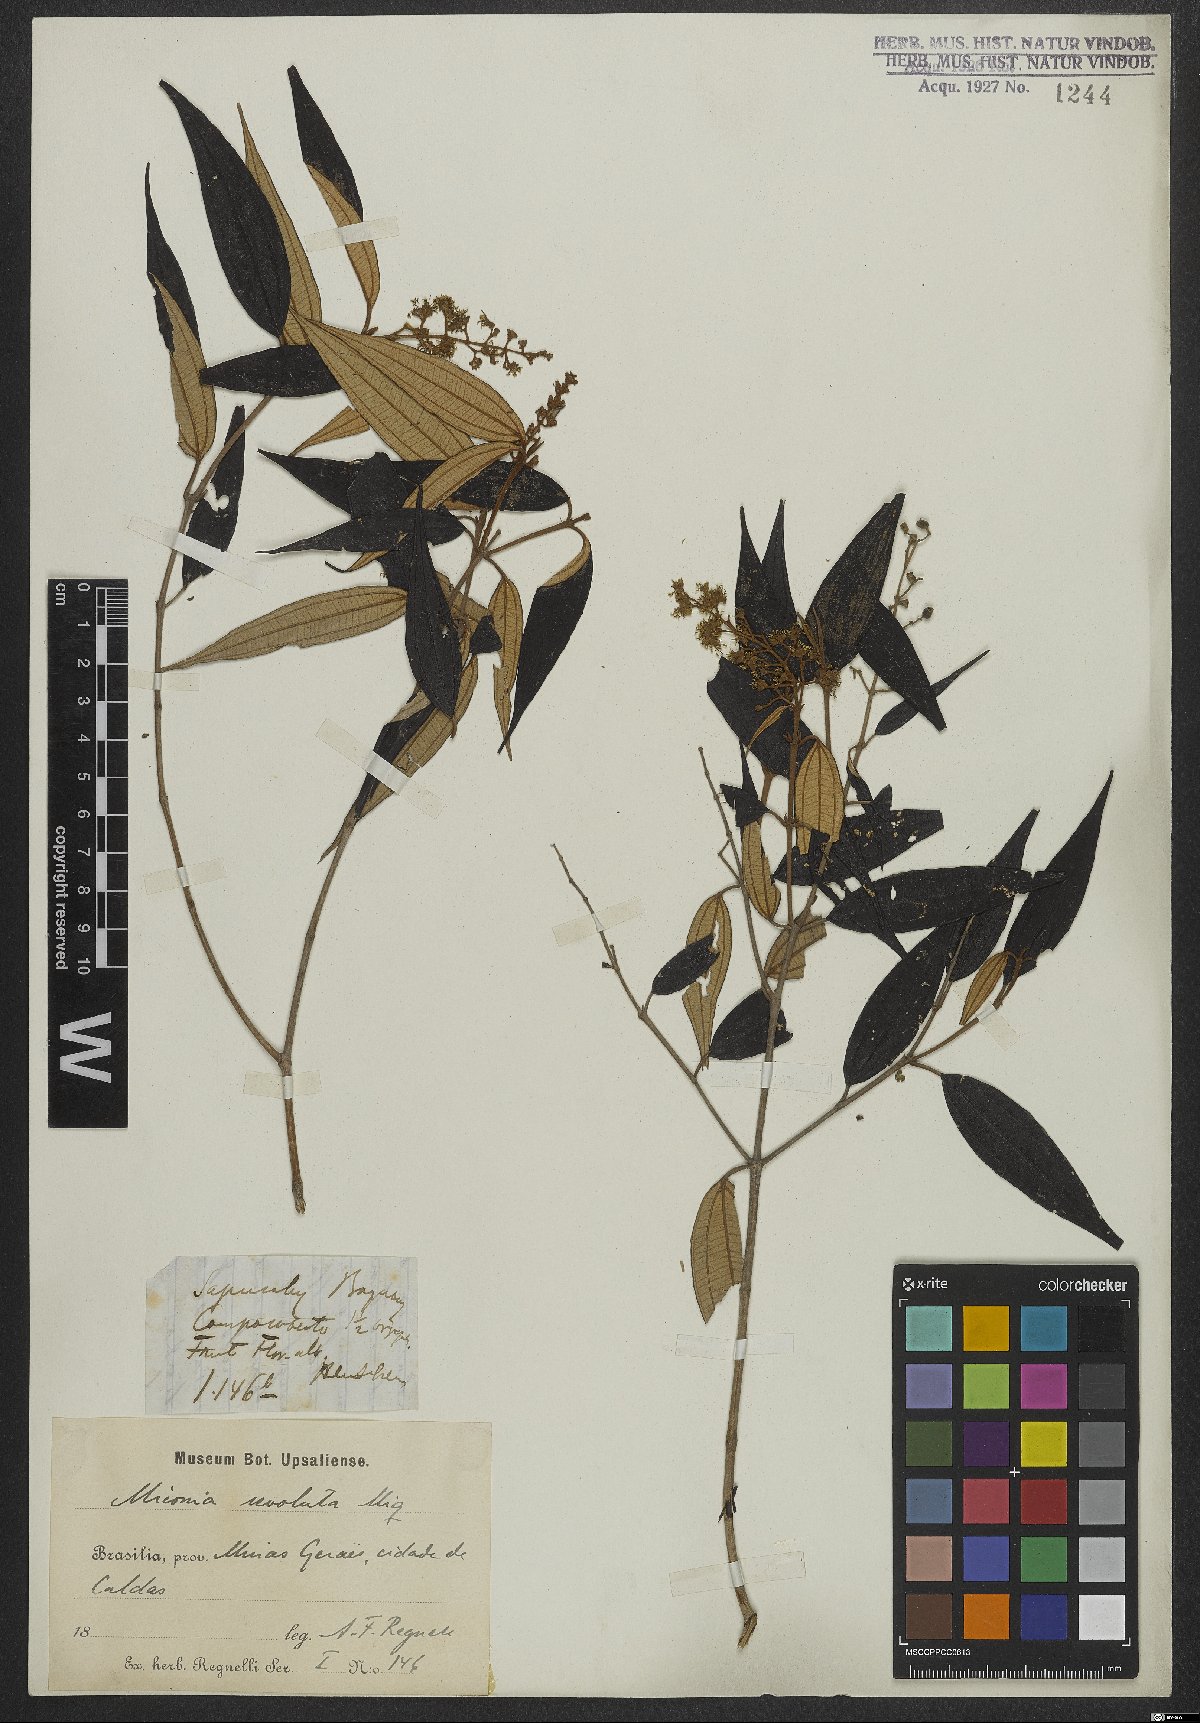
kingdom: Plantae
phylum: Tracheophyta
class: Magnoliopsida
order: Myrtales
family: Melastomataceae
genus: Miconia
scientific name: Miconia prasina
